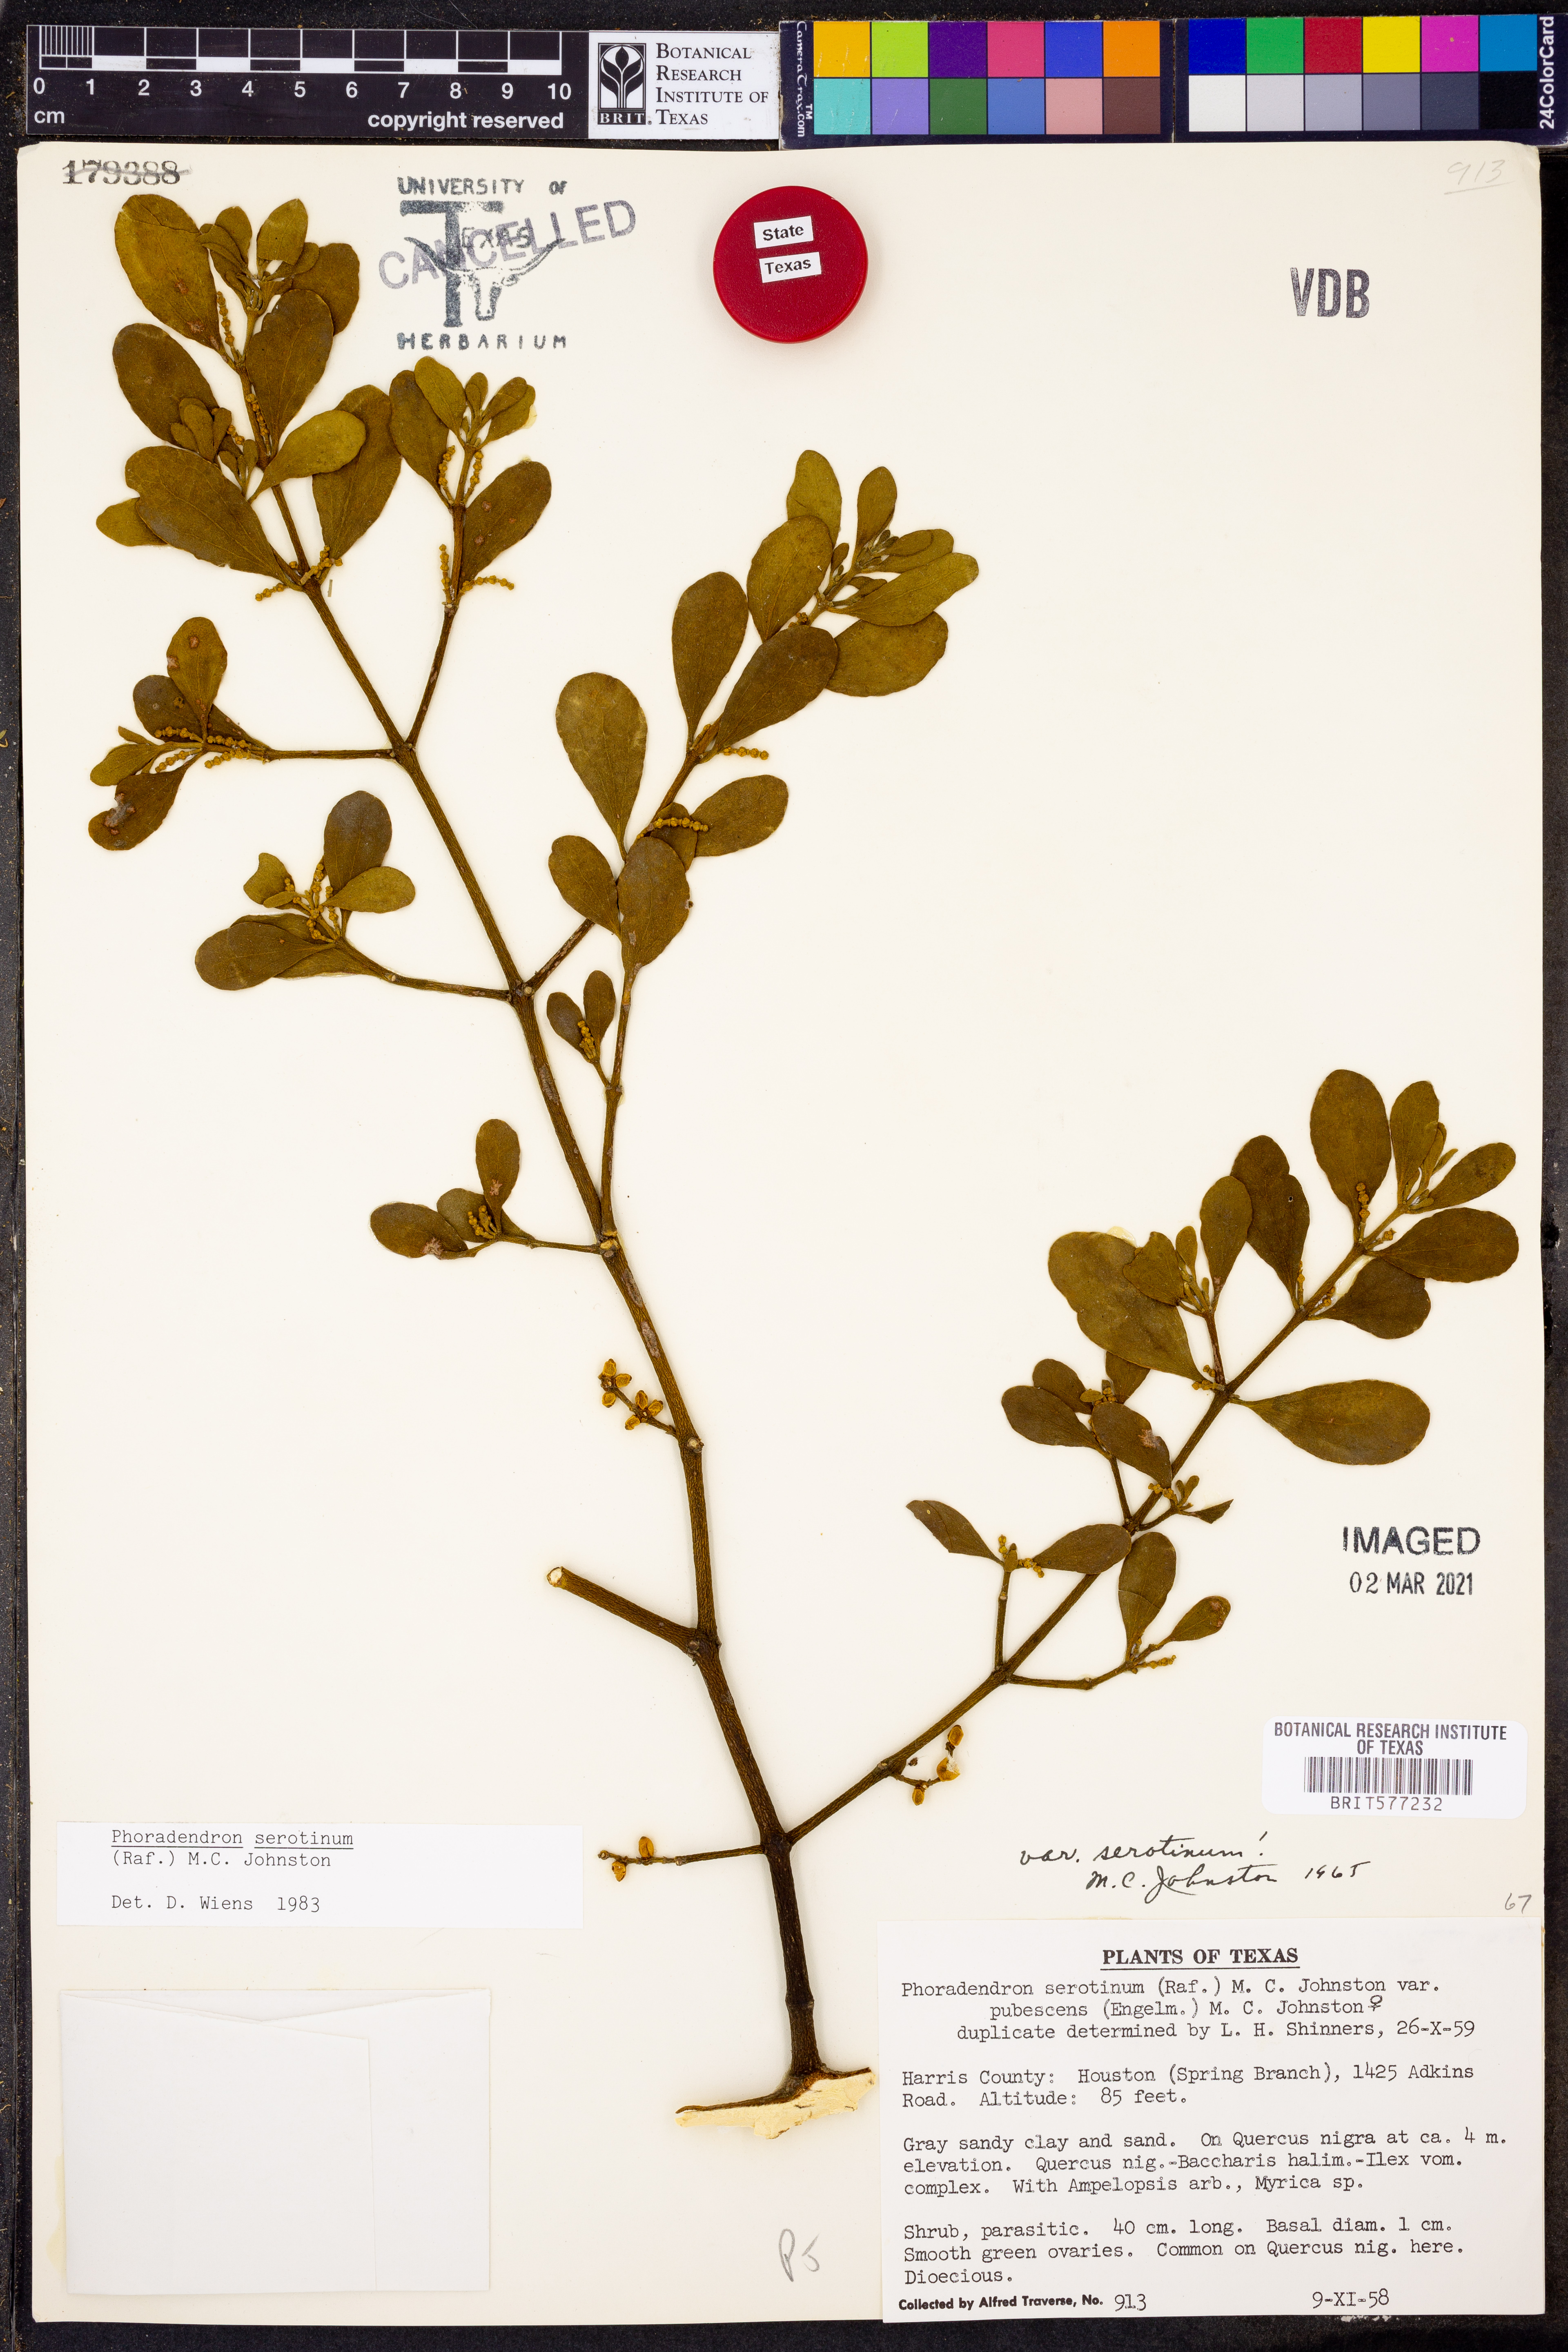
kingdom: Plantae
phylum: Tracheophyta
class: Magnoliopsida
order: Santalales
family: Viscaceae
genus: Phoradendron
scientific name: Phoradendron leucarpum
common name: Pacific mistletoe
